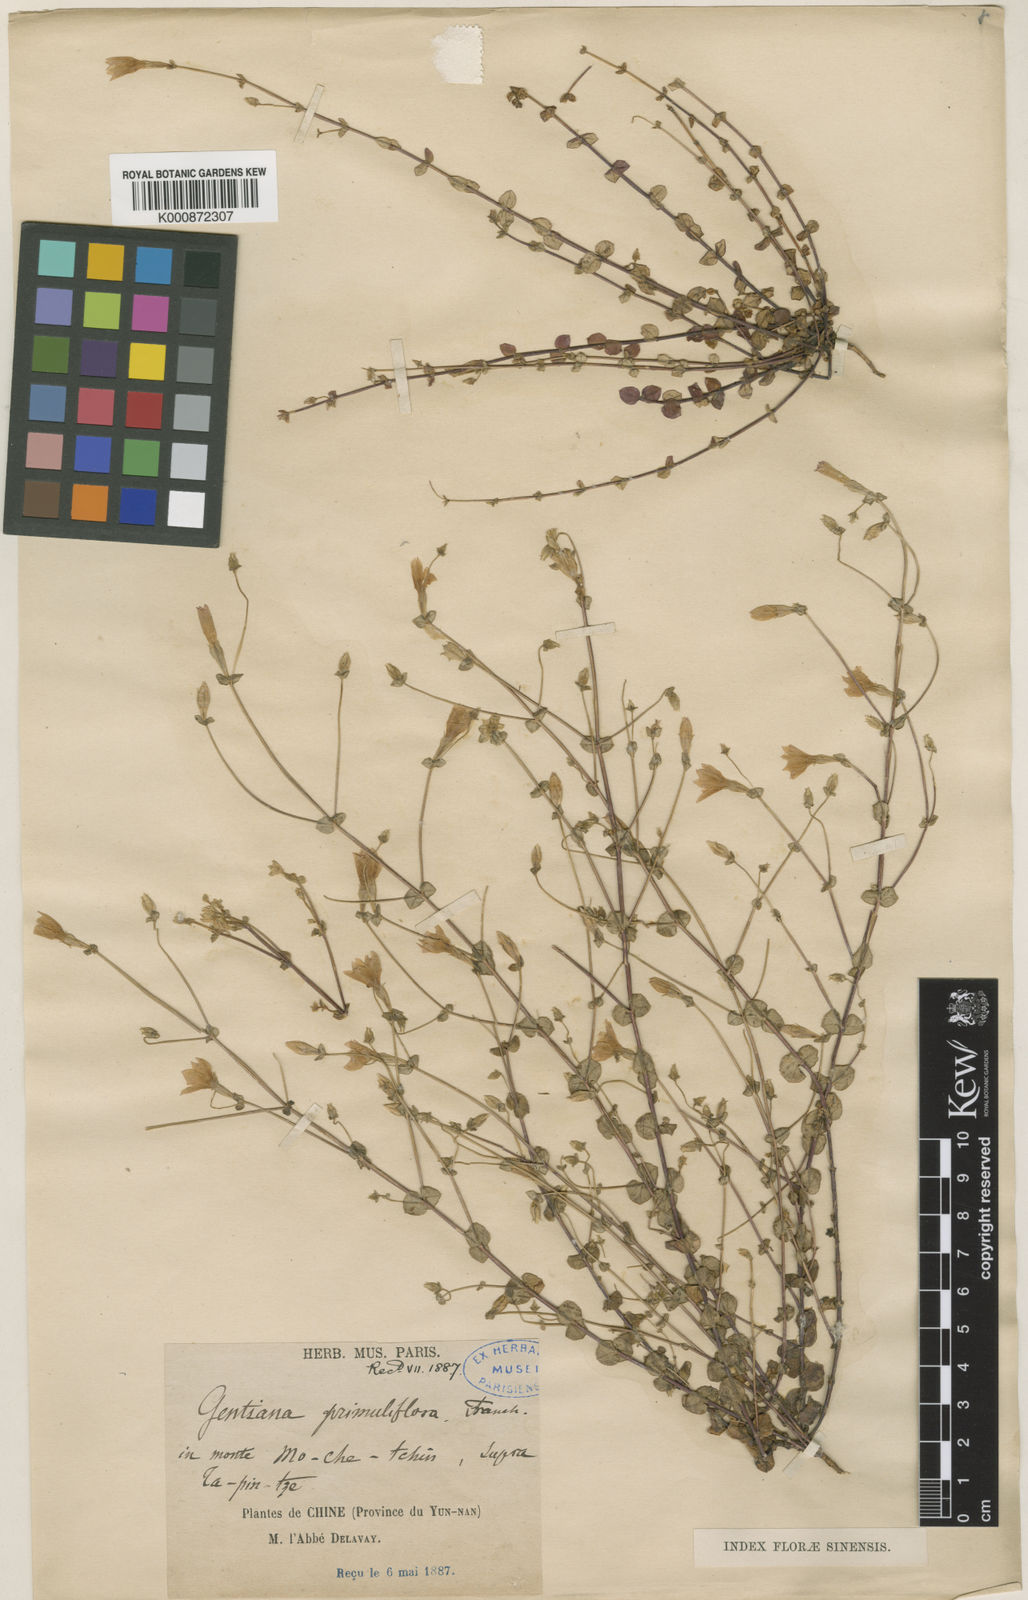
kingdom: Plantae
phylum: Tracheophyta
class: Magnoliopsida
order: Gentianales
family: Gentianaceae
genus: Metagentiana
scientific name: Metagentiana primuliflora
